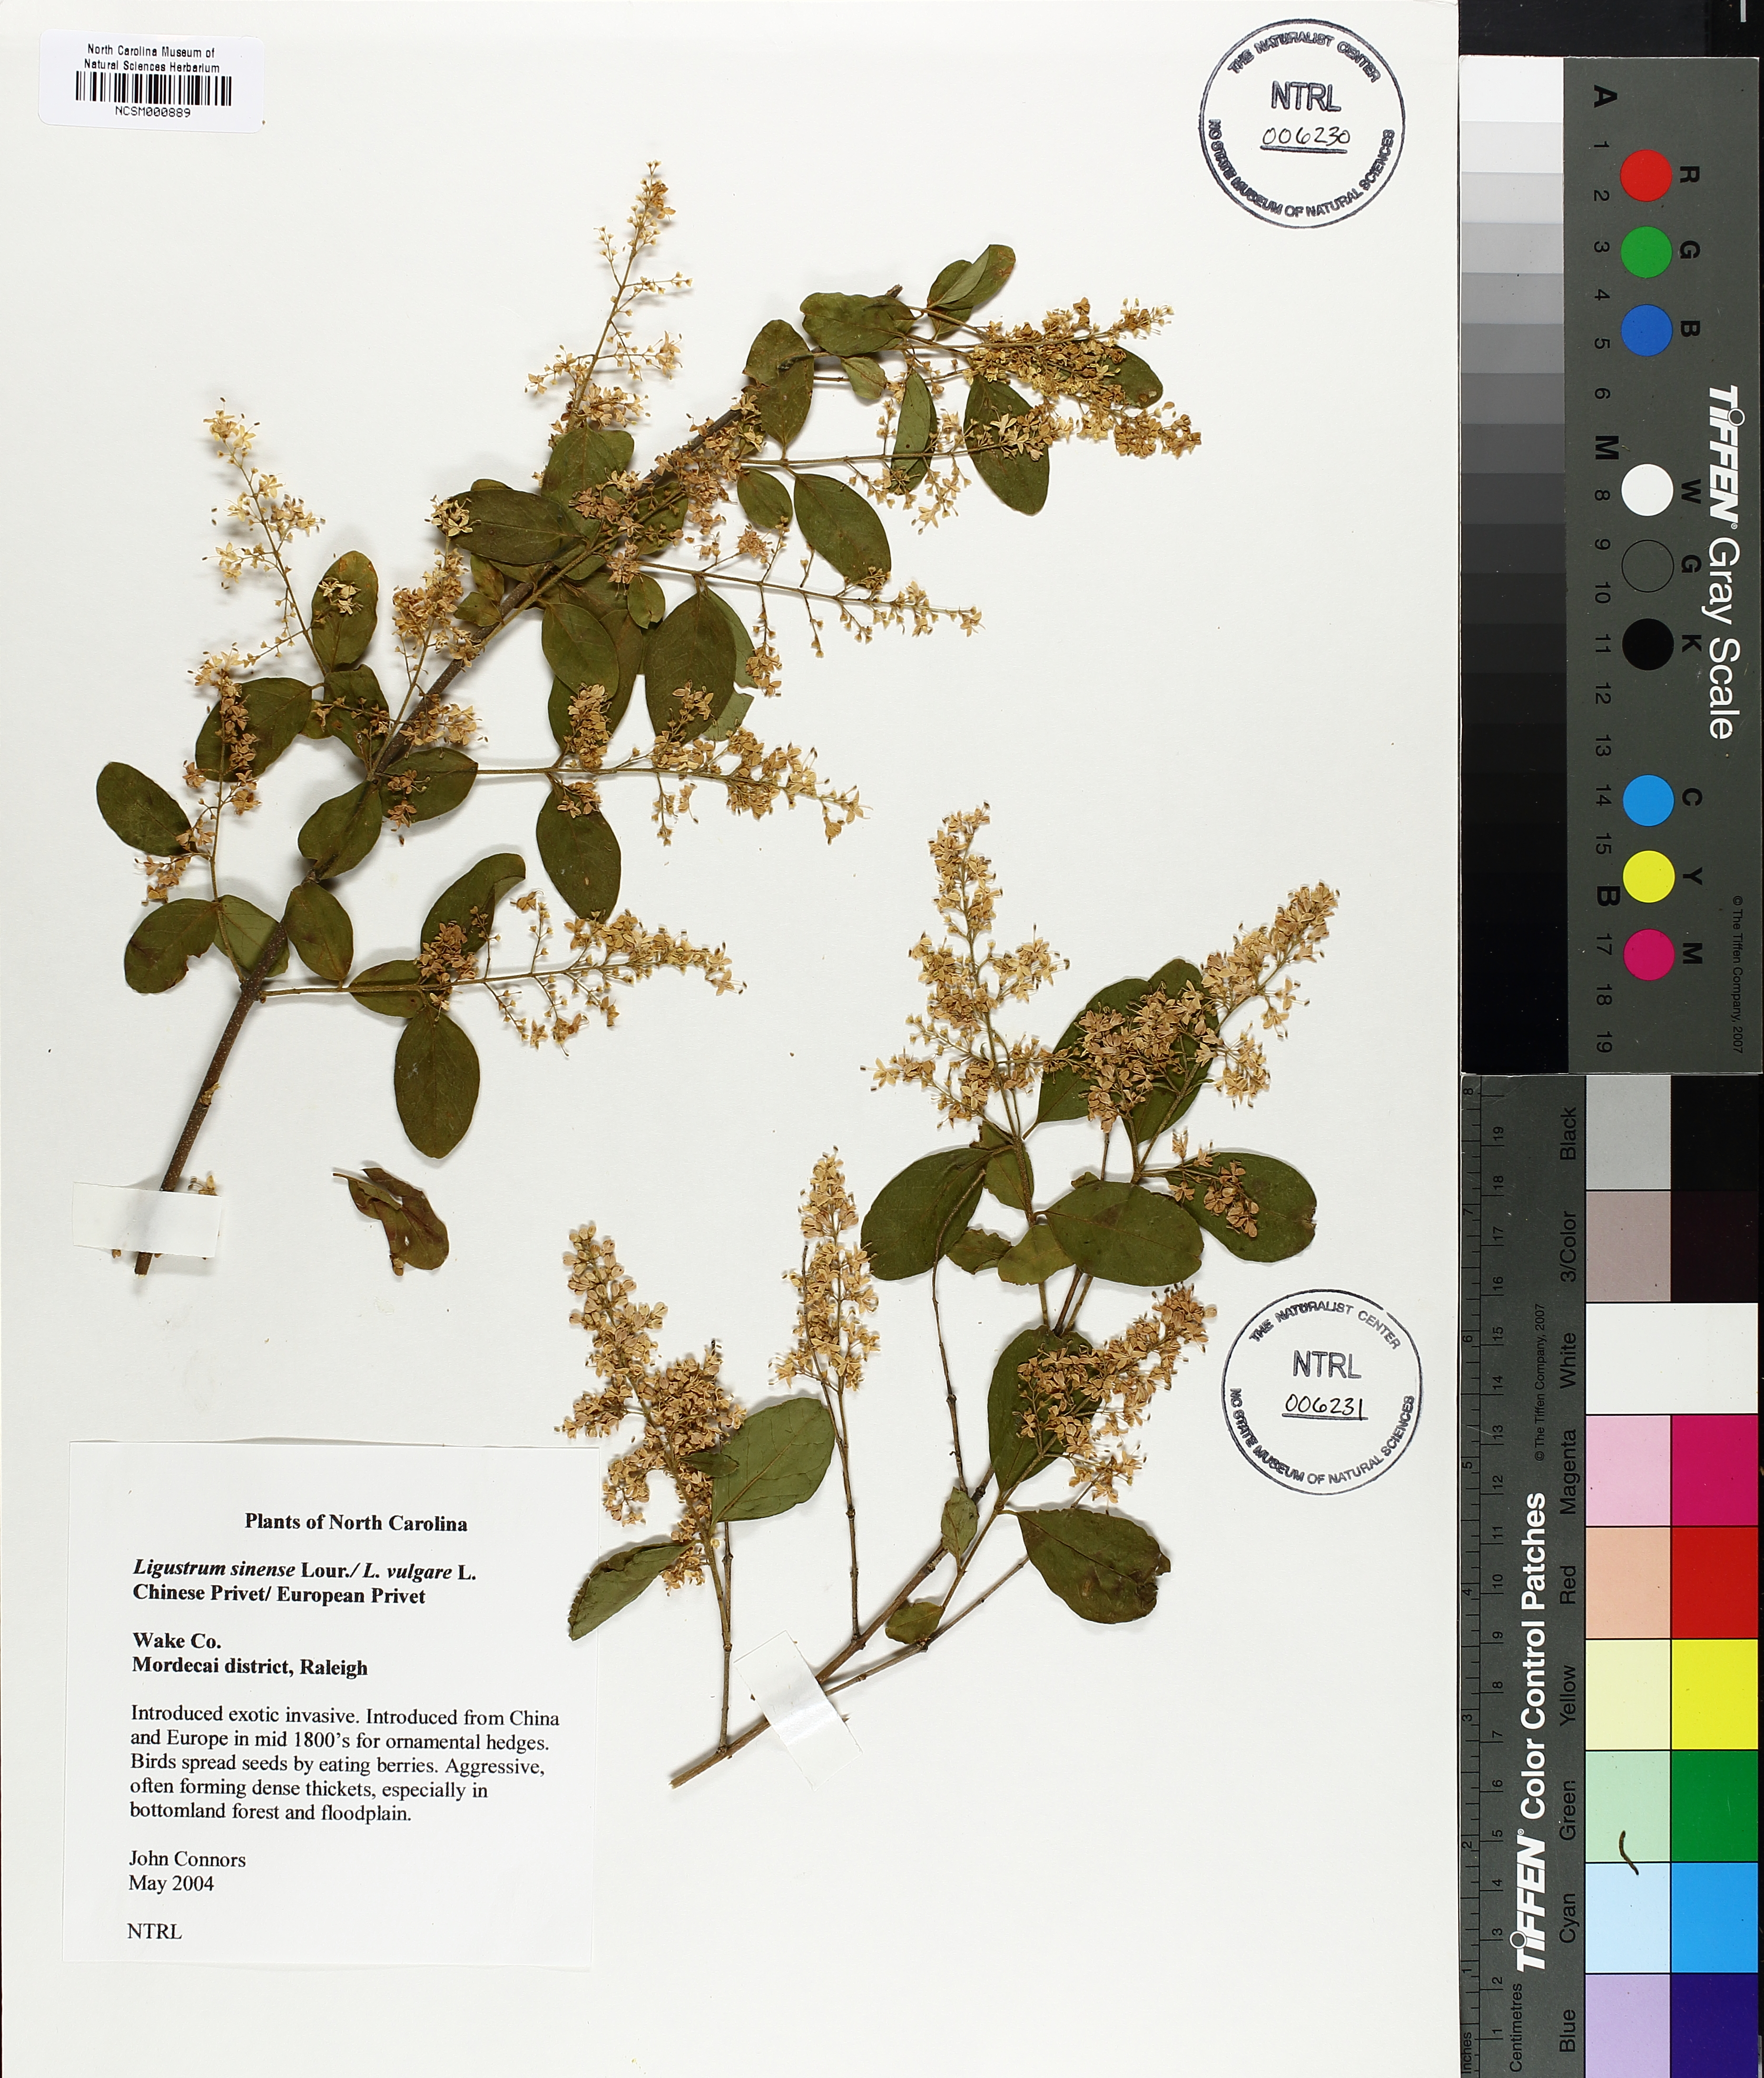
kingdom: Plantae
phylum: Tracheophyta
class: Magnoliopsida
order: Lamiales
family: Oleaceae
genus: Ligustrum
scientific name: Ligustrum sinense
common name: Chinese privet
